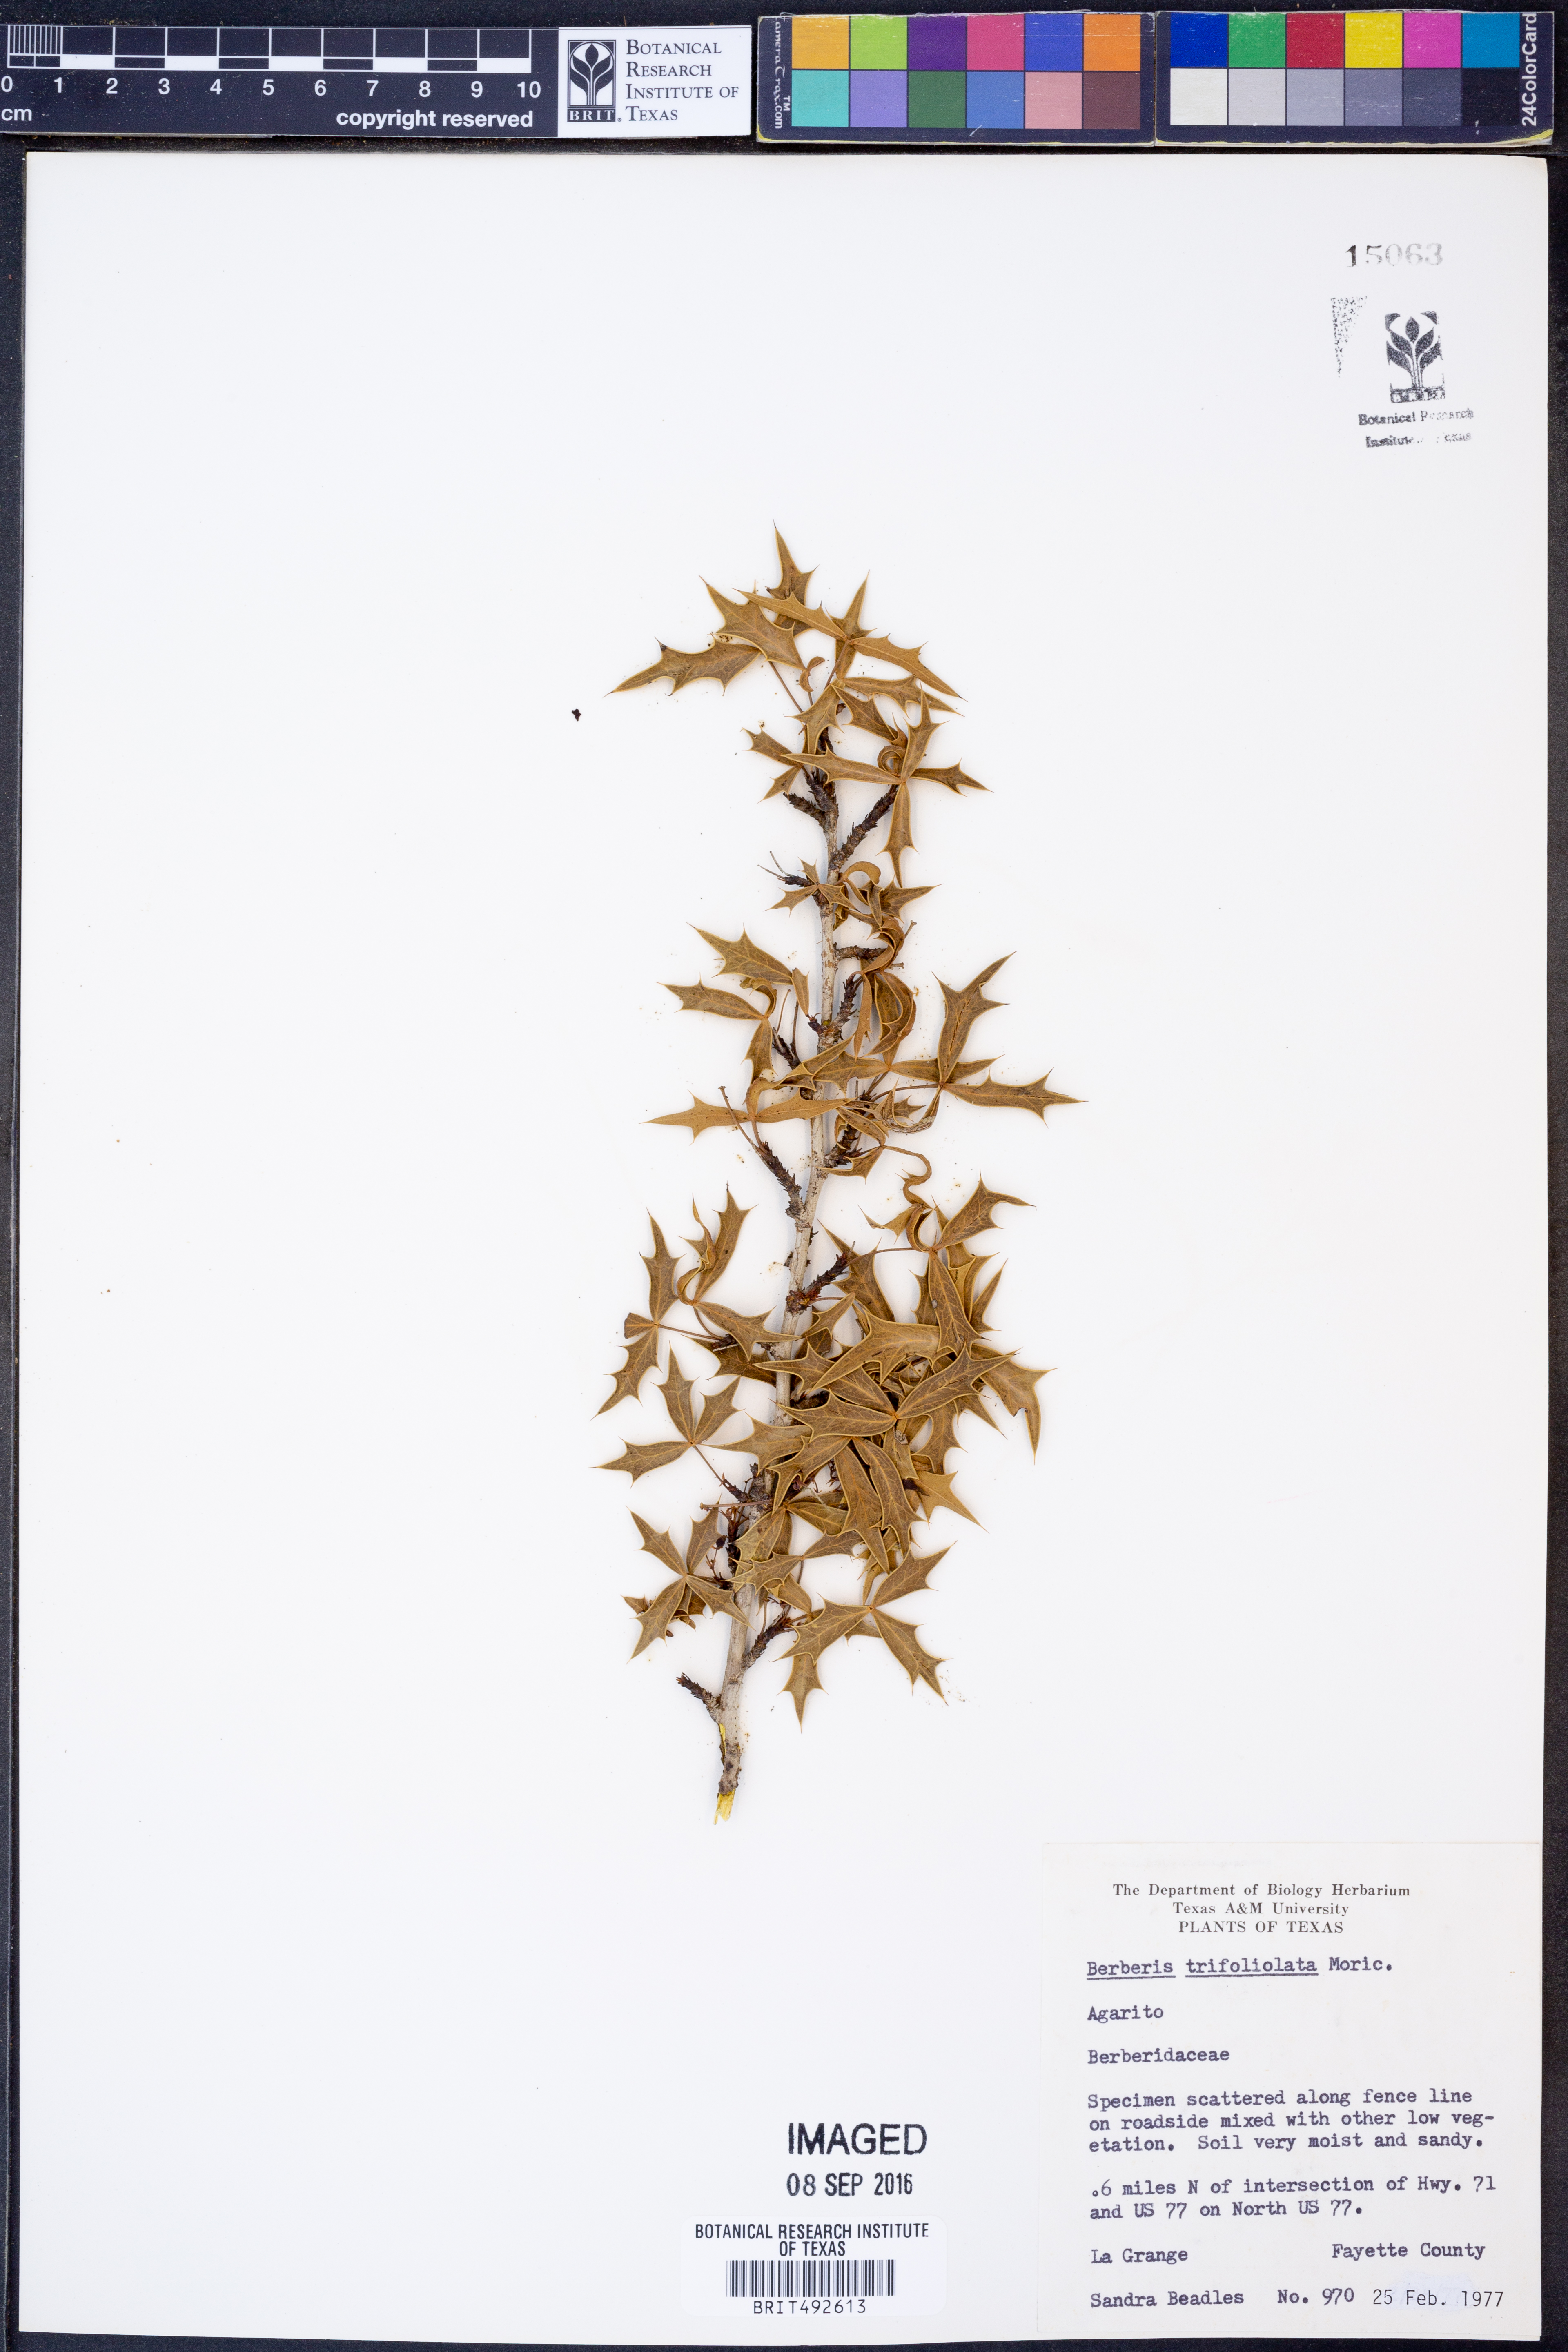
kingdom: Plantae
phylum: Tracheophyta
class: Magnoliopsida
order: Ranunculales
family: Berberidaceae
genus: Alloberberis
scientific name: Alloberberis trifoliolata
